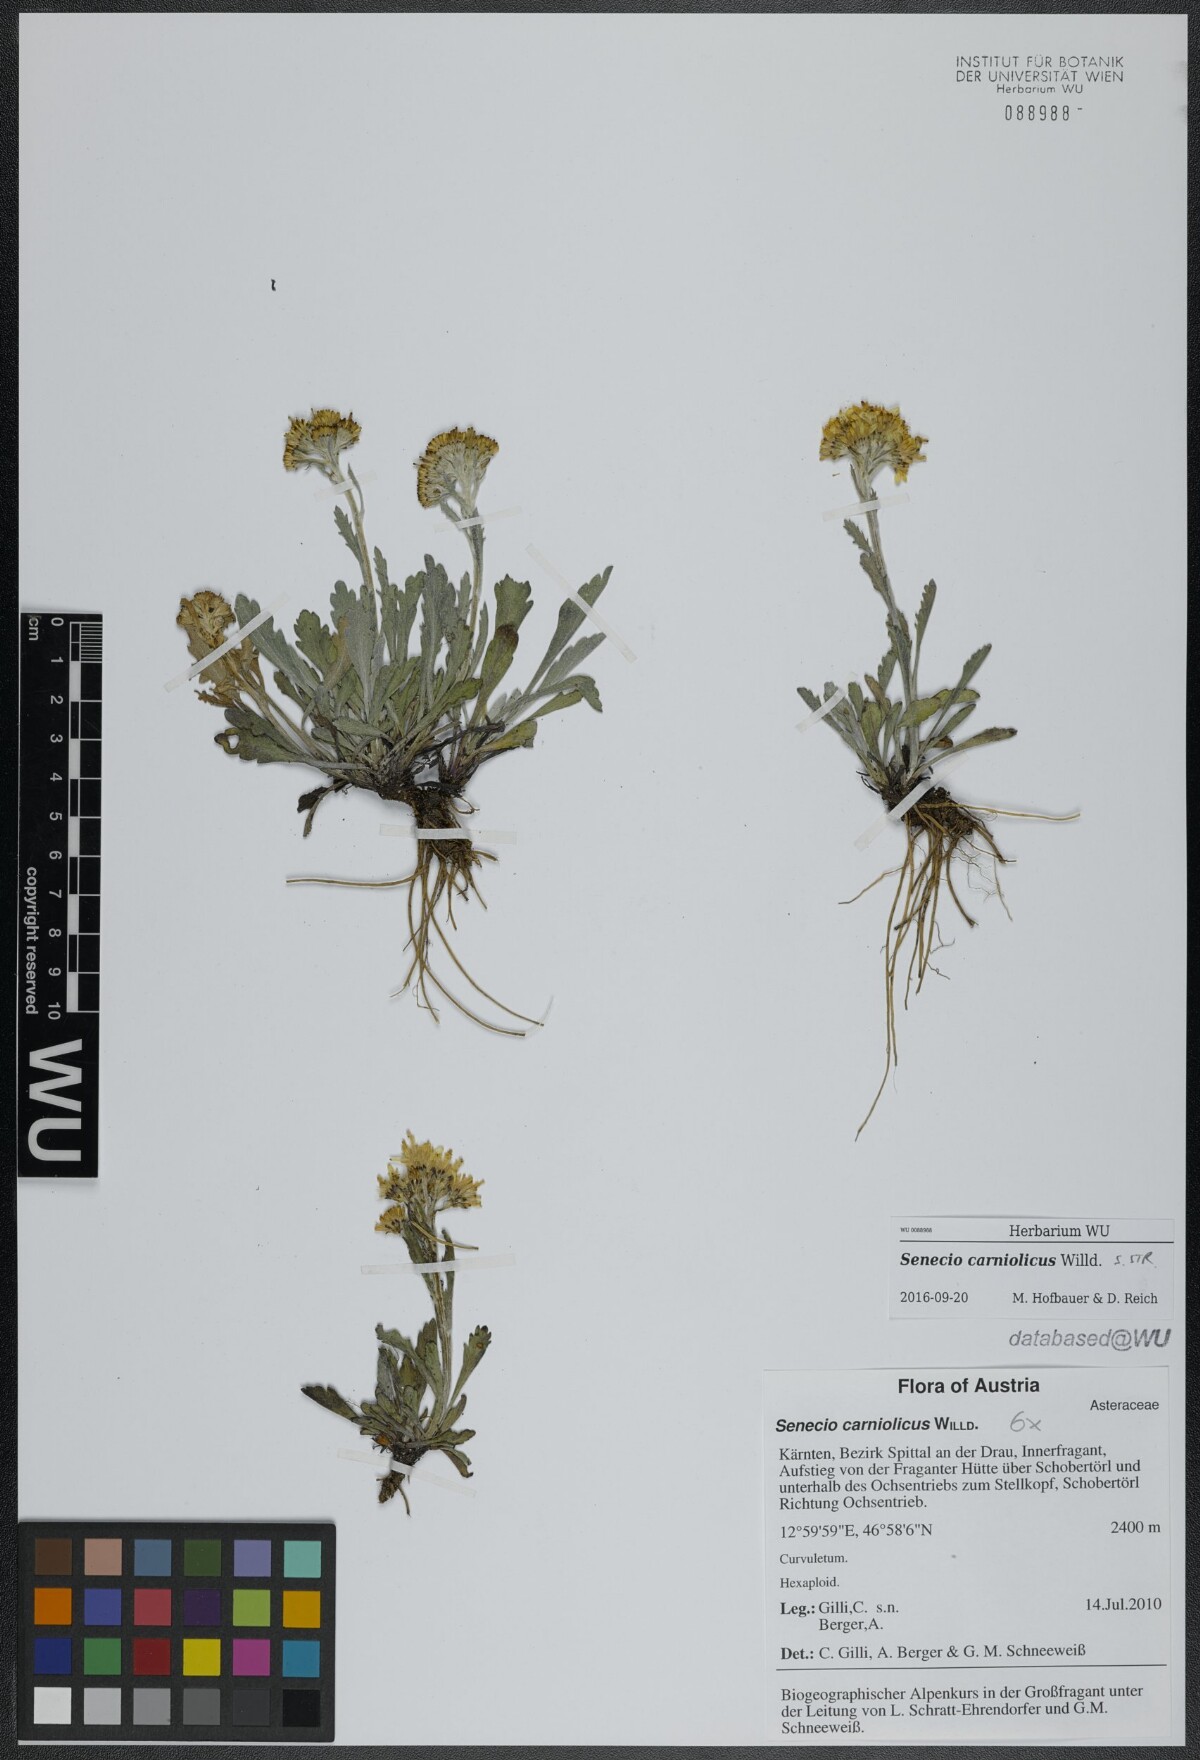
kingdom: Plantae
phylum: Tracheophyta
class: Magnoliopsida
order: Asterales
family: Asteraceae
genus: Jacobaea
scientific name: Jacobaea carniolica
